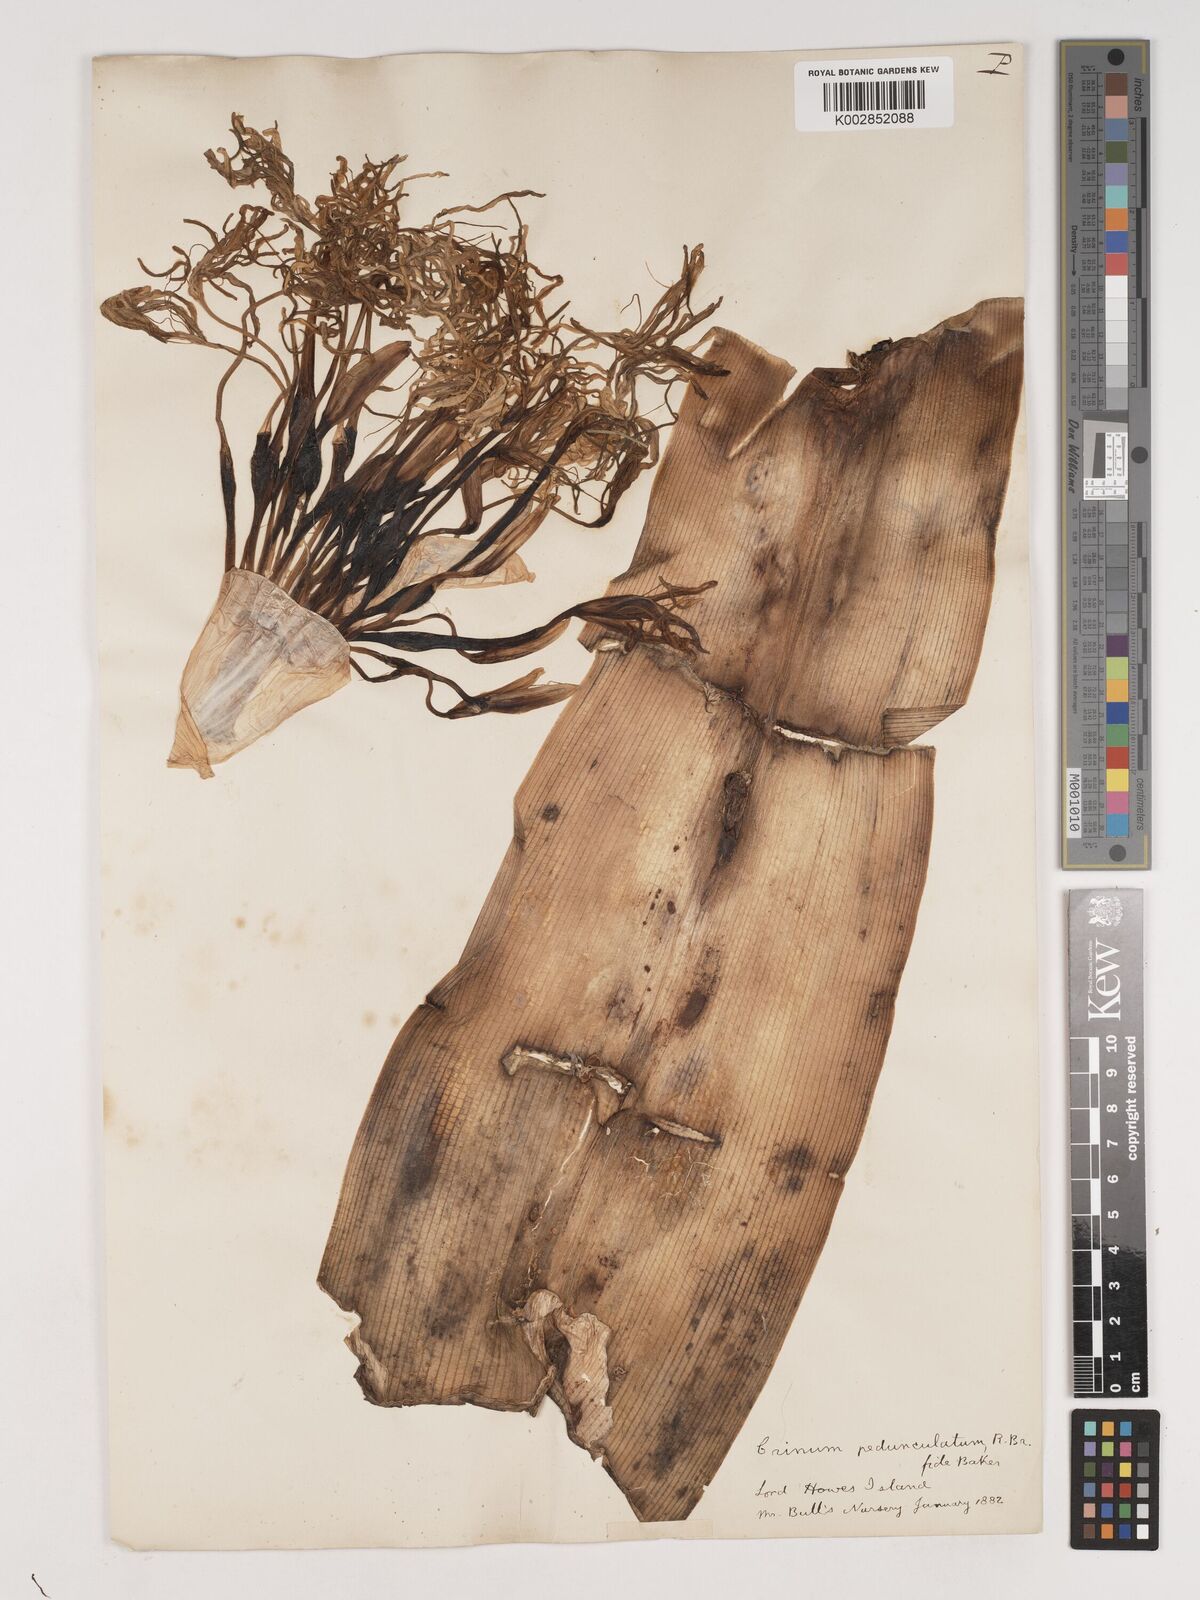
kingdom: Plantae
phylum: Tracheophyta
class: Liliopsida
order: Asparagales
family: Amaryllidaceae
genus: Crinum
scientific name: Crinum asiaticum
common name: Poisonbulb
